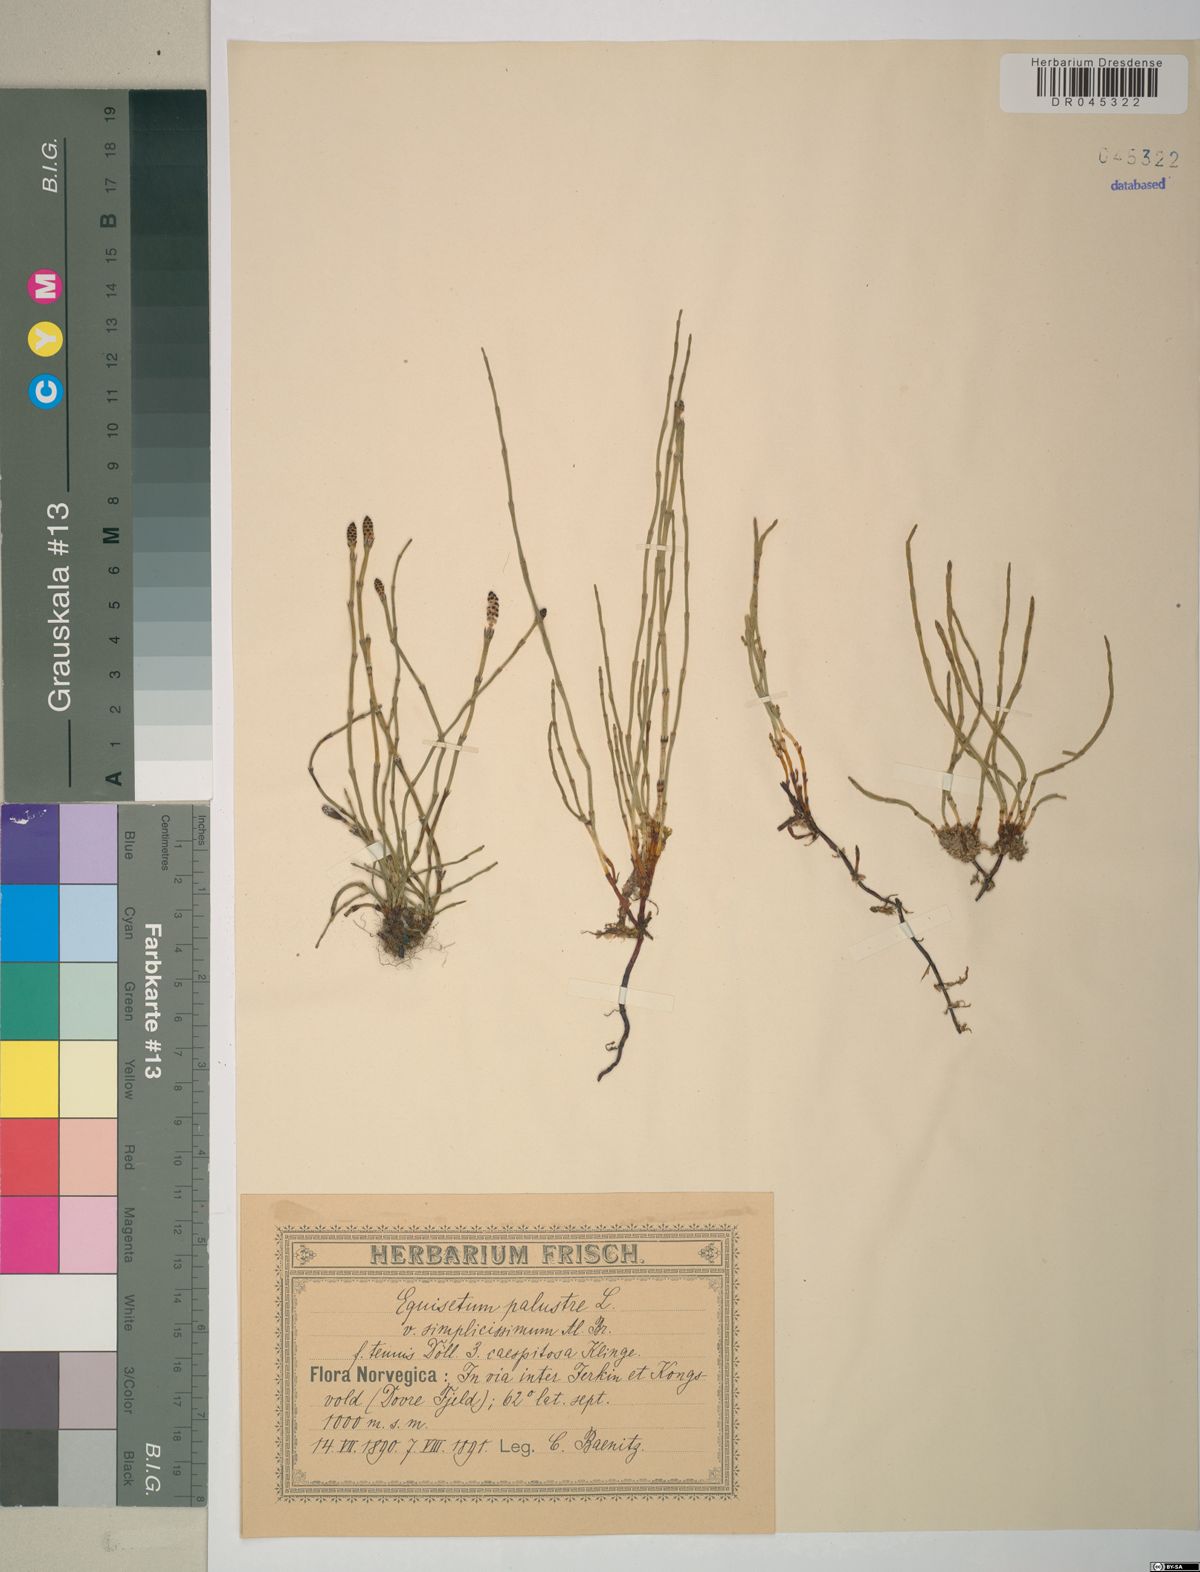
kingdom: Plantae
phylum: Tracheophyta
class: Polypodiopsida
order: Equisetales
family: Equisetaceae
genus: Equisetum
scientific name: Equisetum palustre
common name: Marsh horsetail
